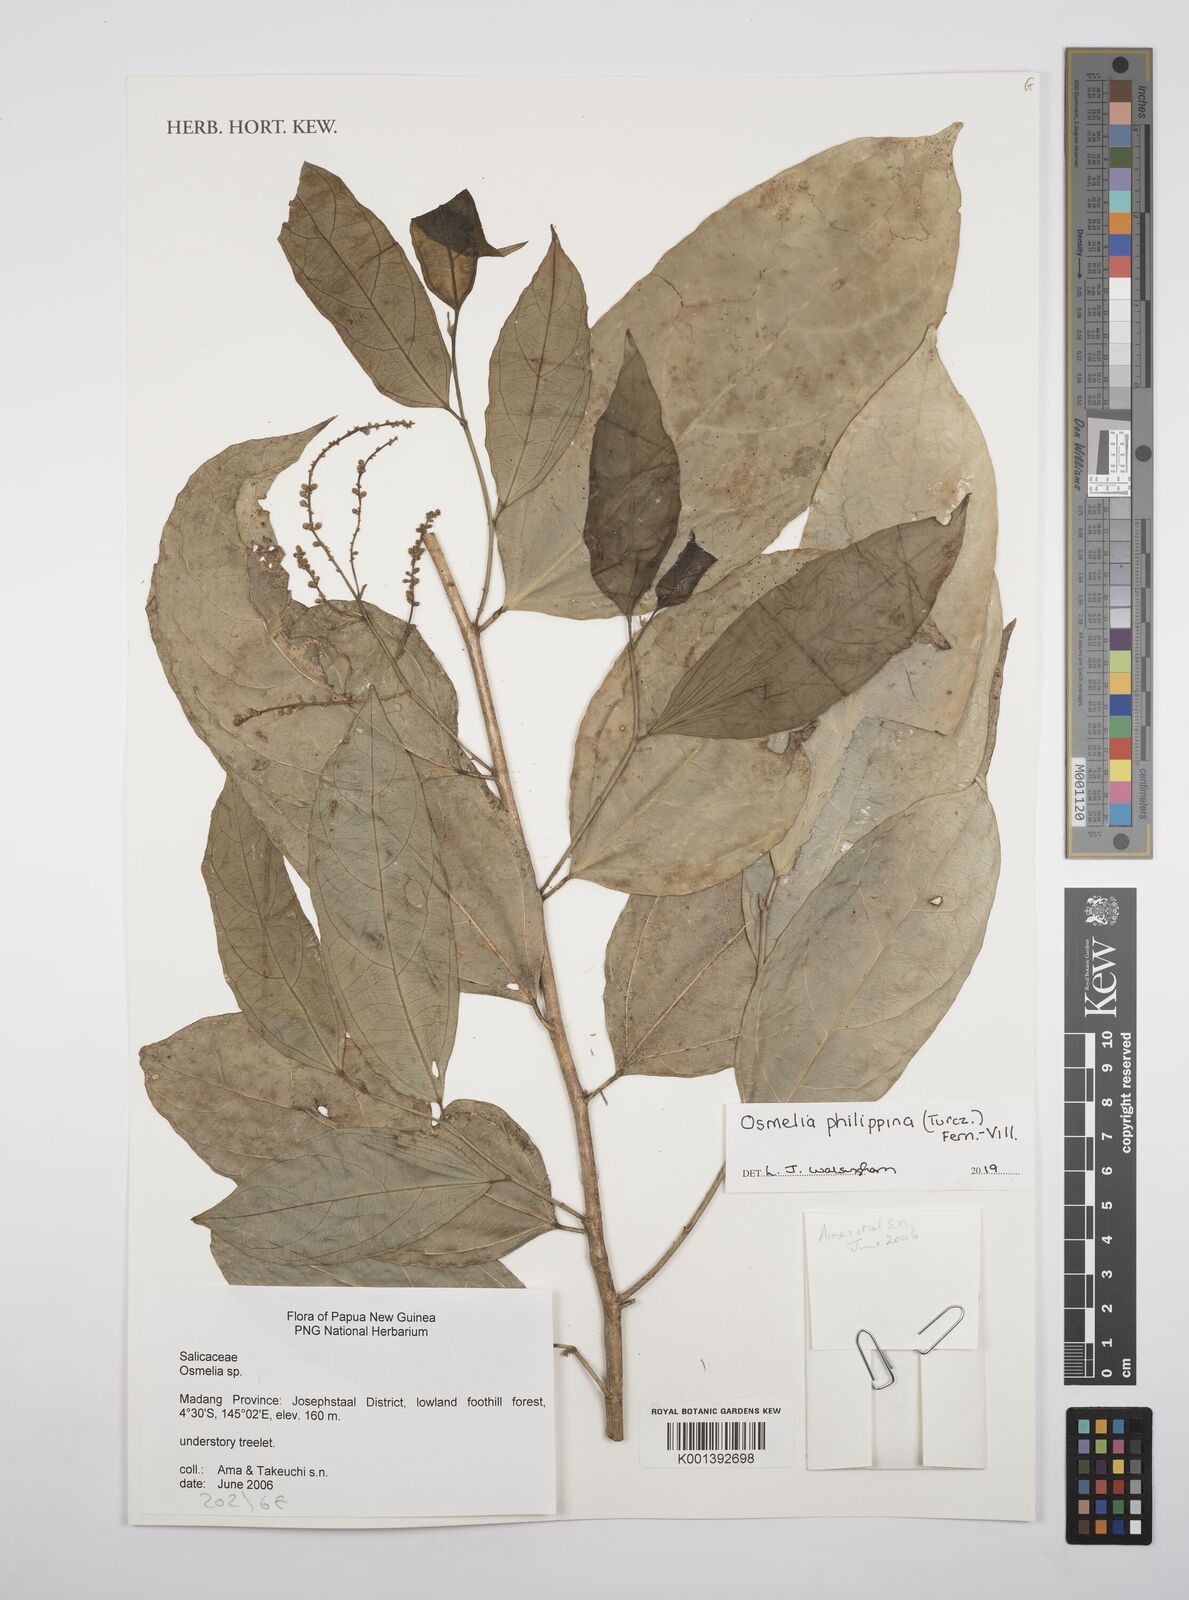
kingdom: Plantae
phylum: Tracheophyta
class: Magnoliopsida
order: Malpighiales
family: Salicaceae
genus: Osmelia
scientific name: Osmelia philippina
